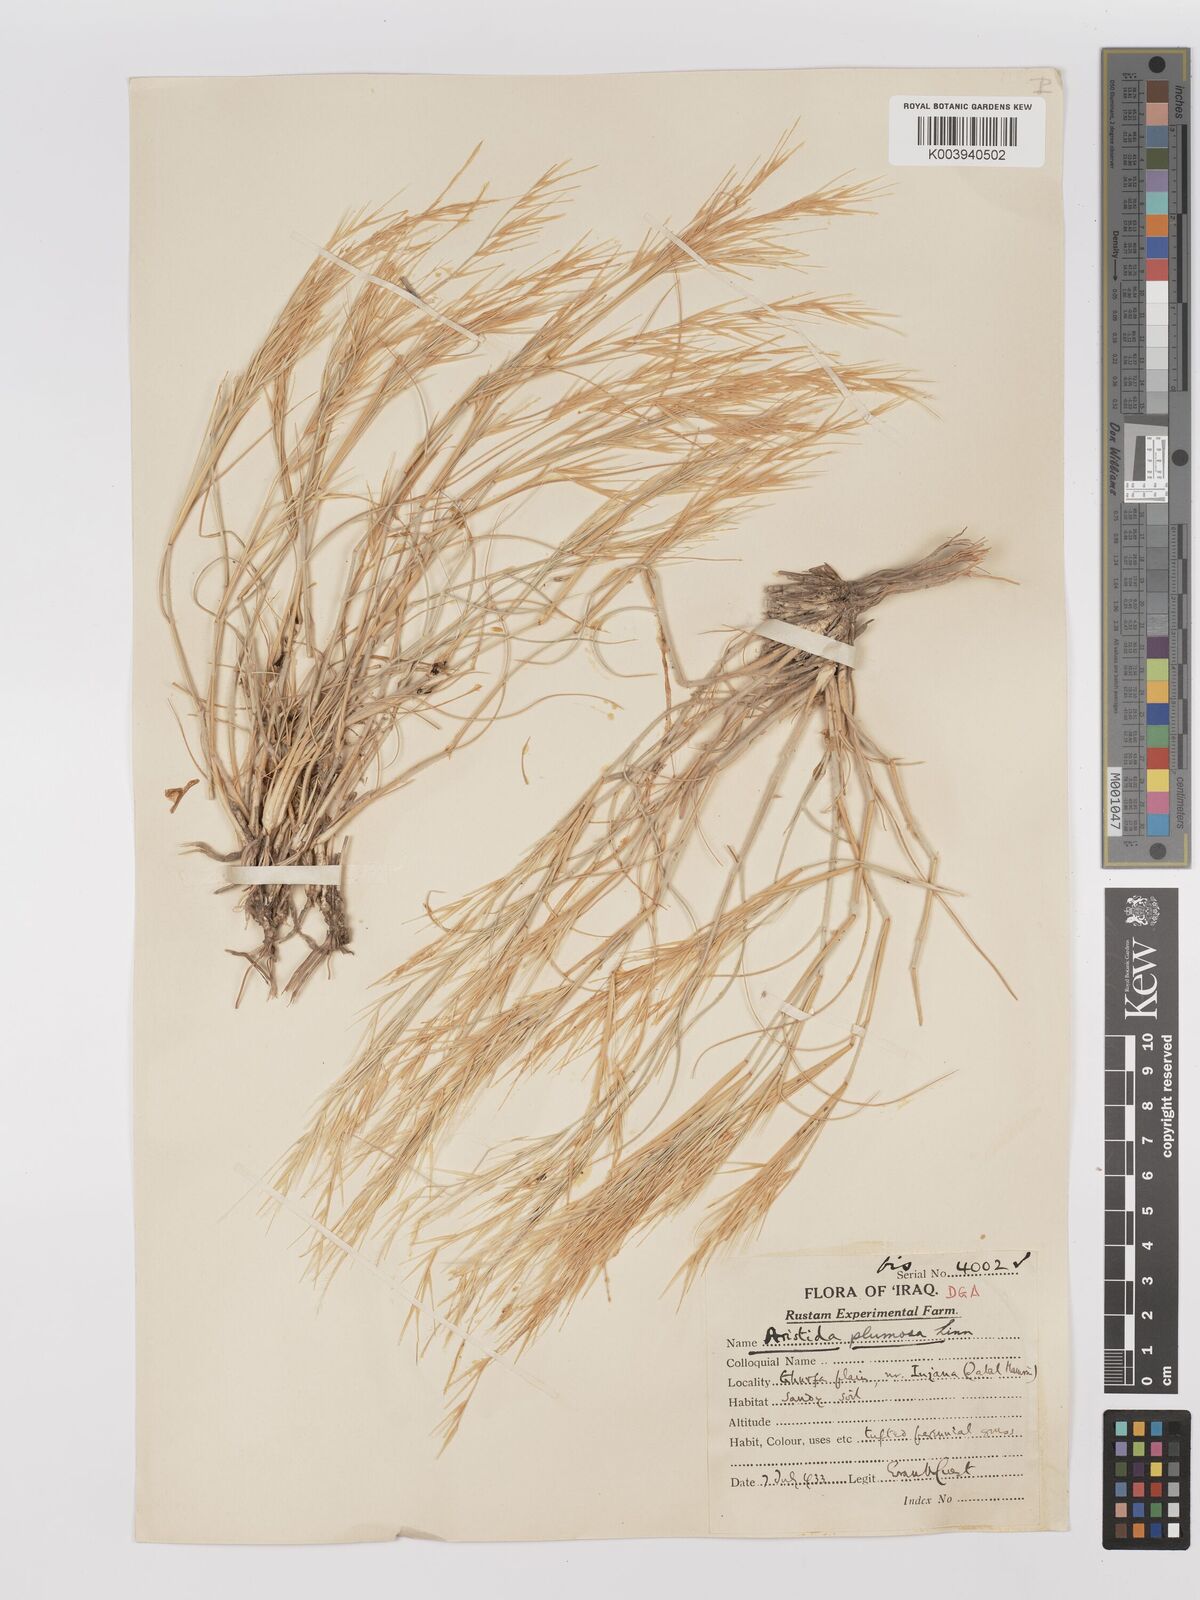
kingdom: Plantae
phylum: Tracheophyta
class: Liliopsida
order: Poales
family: Poaceae
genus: Stipagrostis
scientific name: Stipagrostis plumosa
